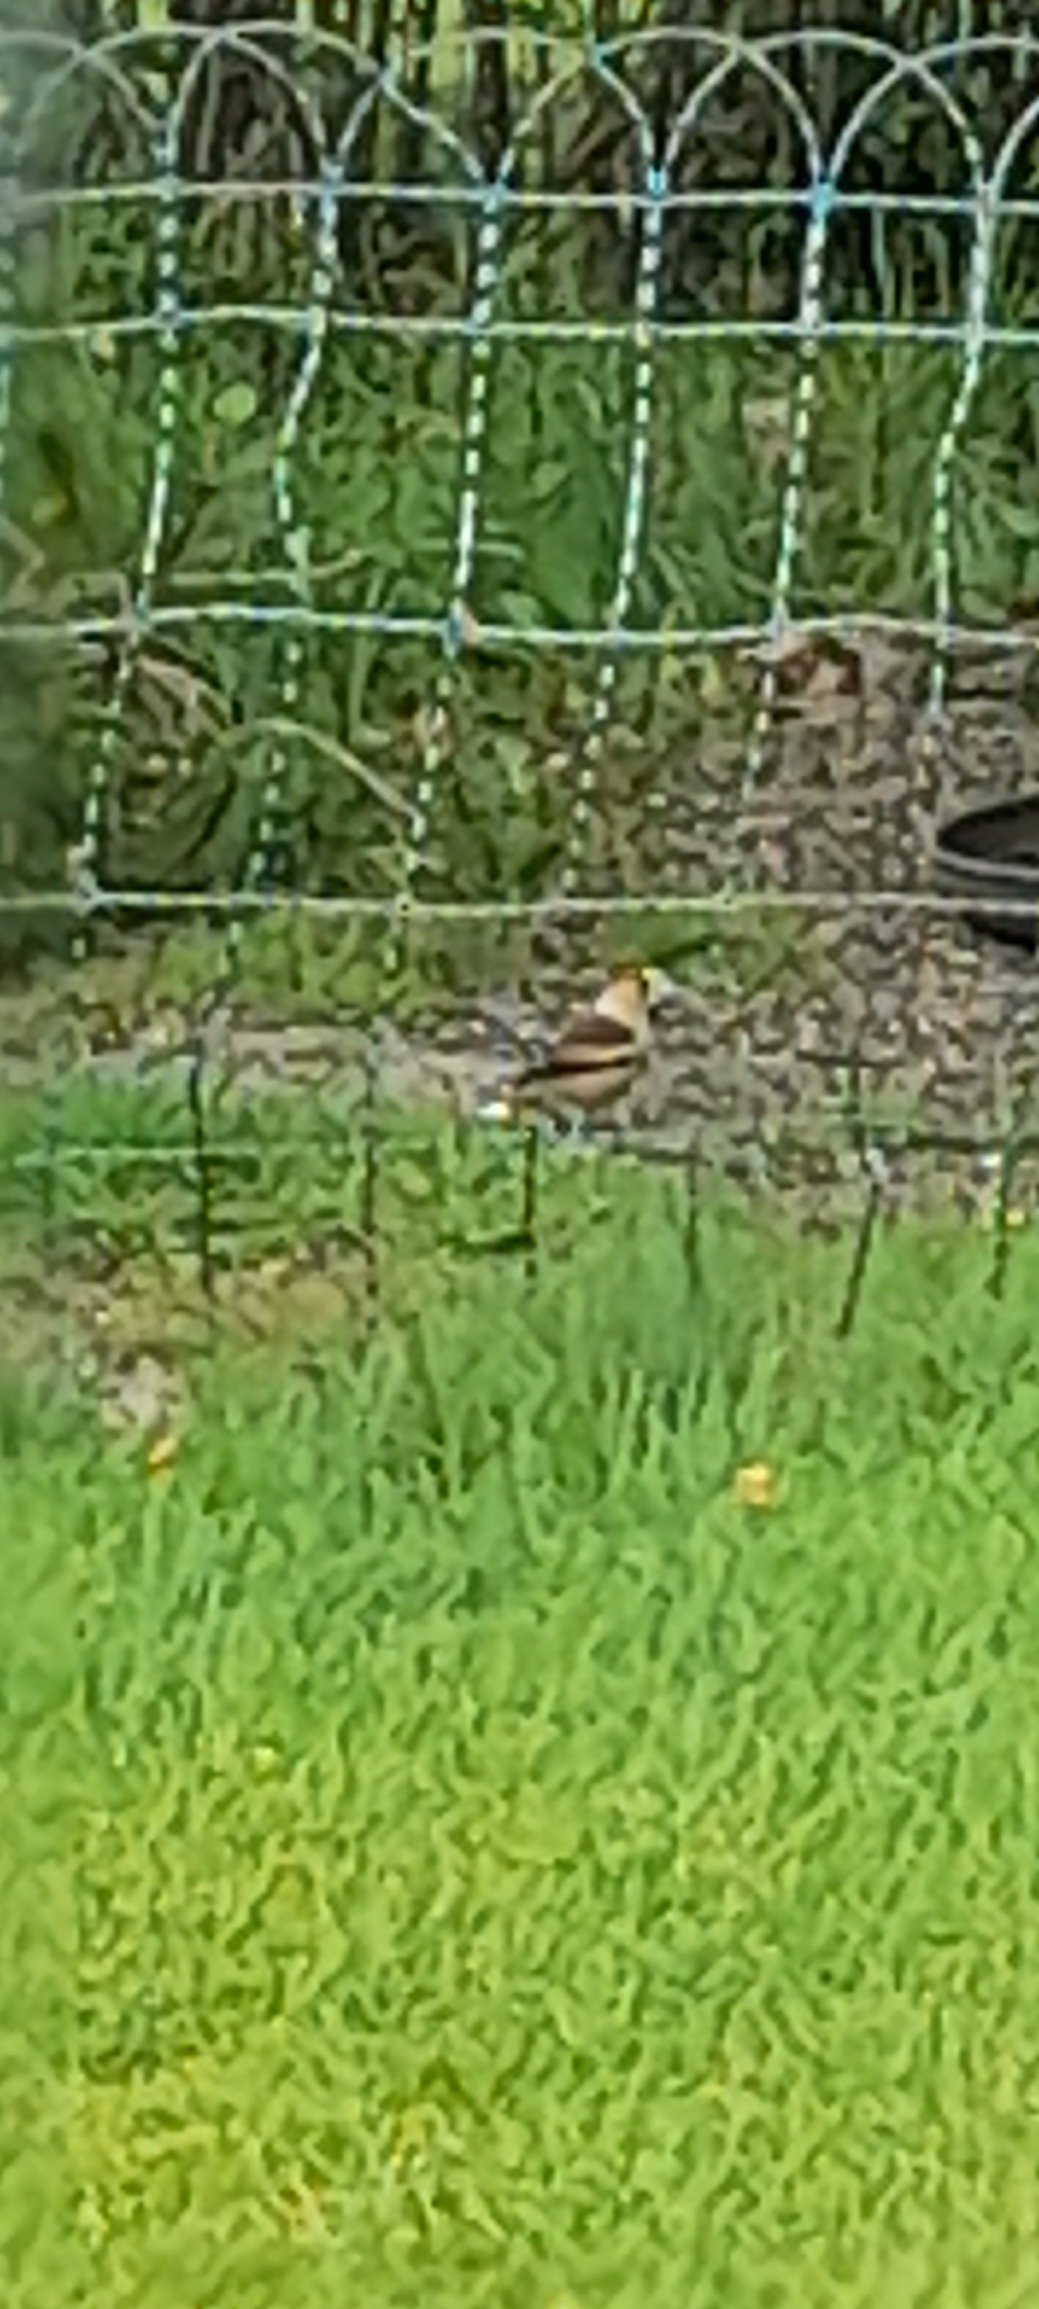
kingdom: Animalia
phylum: Chordata
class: Aves
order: Passeriformes
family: Fringillidae
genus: Coccothraustes
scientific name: Coccothraustes coccothraustes
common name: Kernebider
